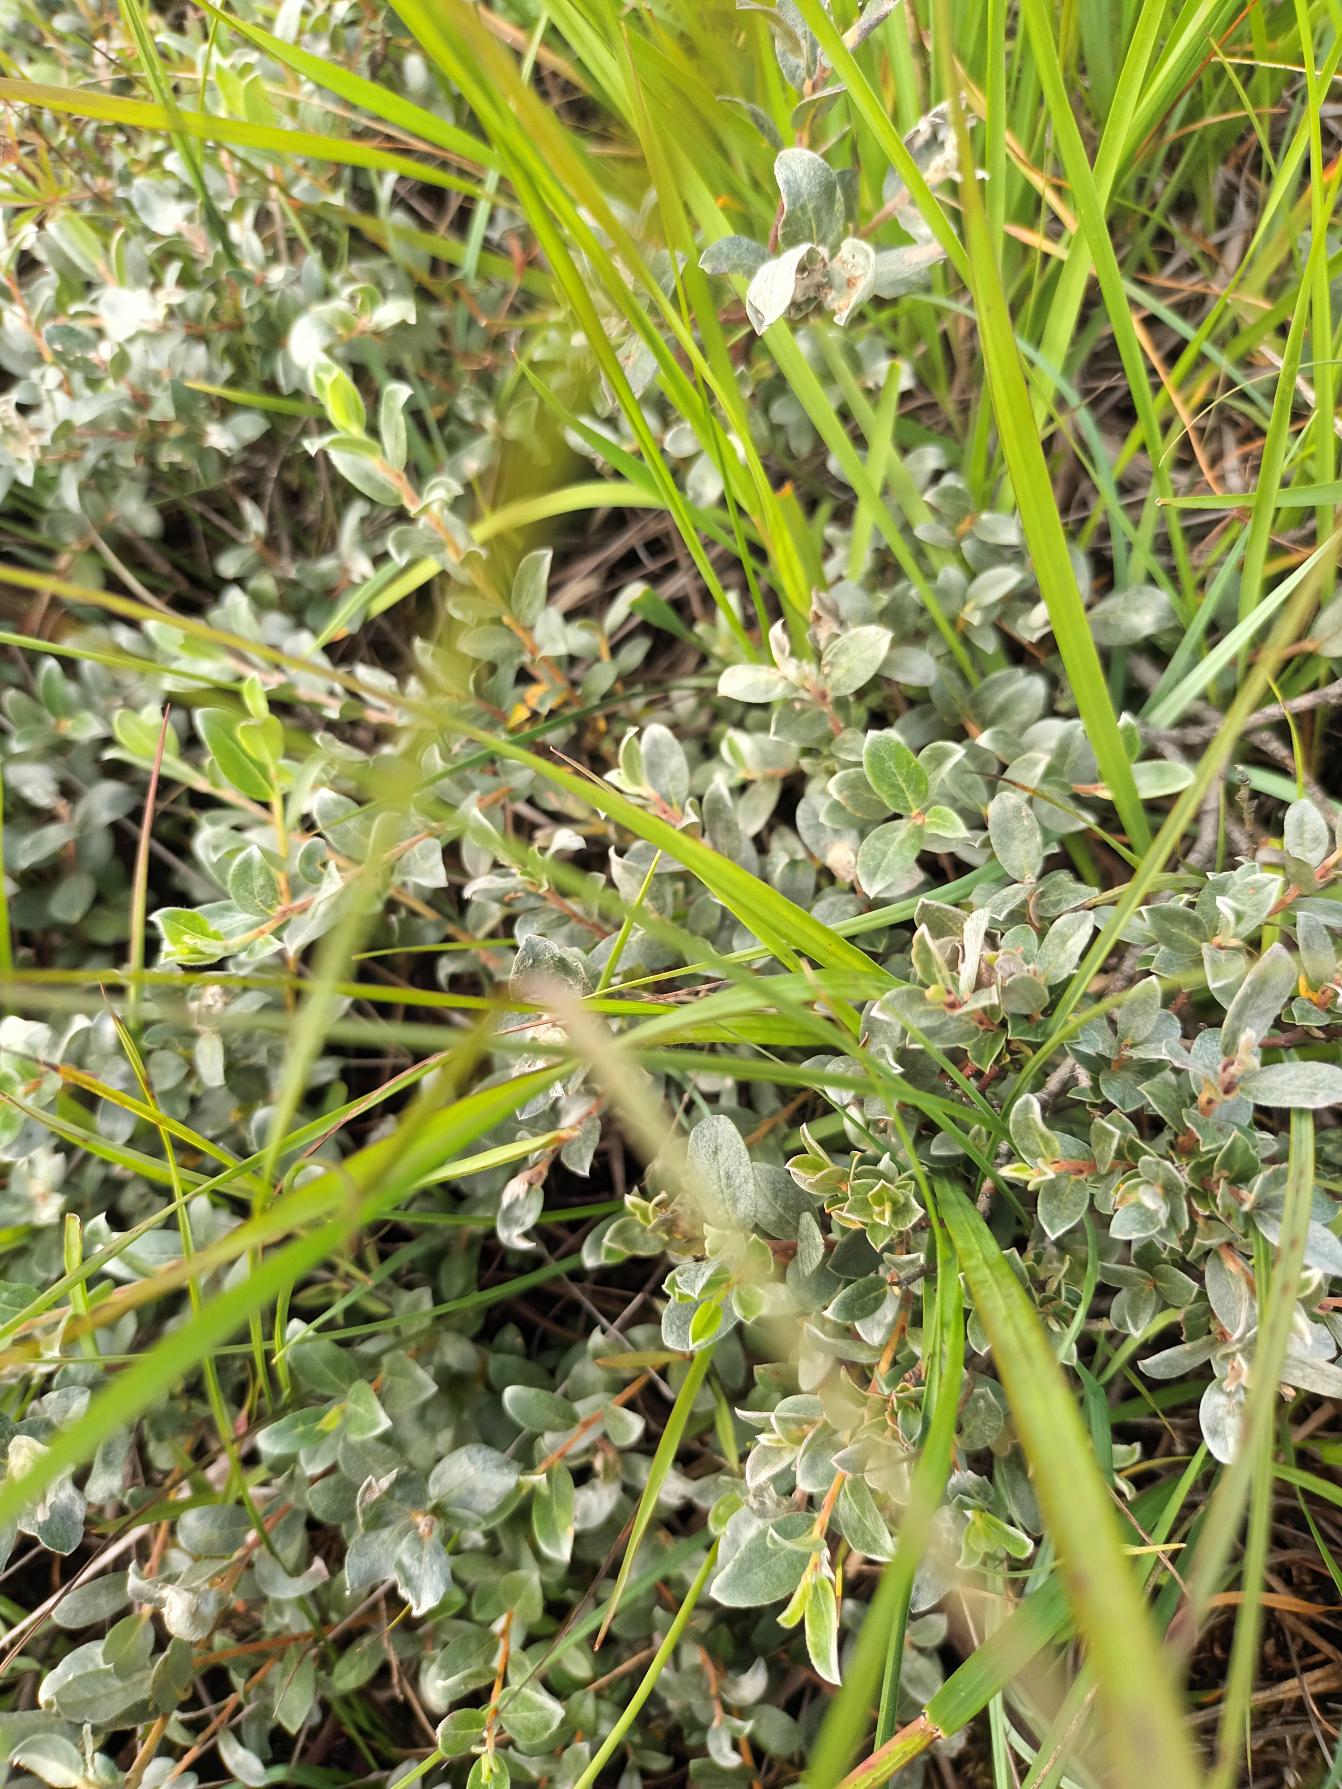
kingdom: Plantae
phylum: Tracheophyta
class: Magnoliopsida
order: Malpighiales
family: Salicaceae
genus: Salix
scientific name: Salix repens
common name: Gråris
